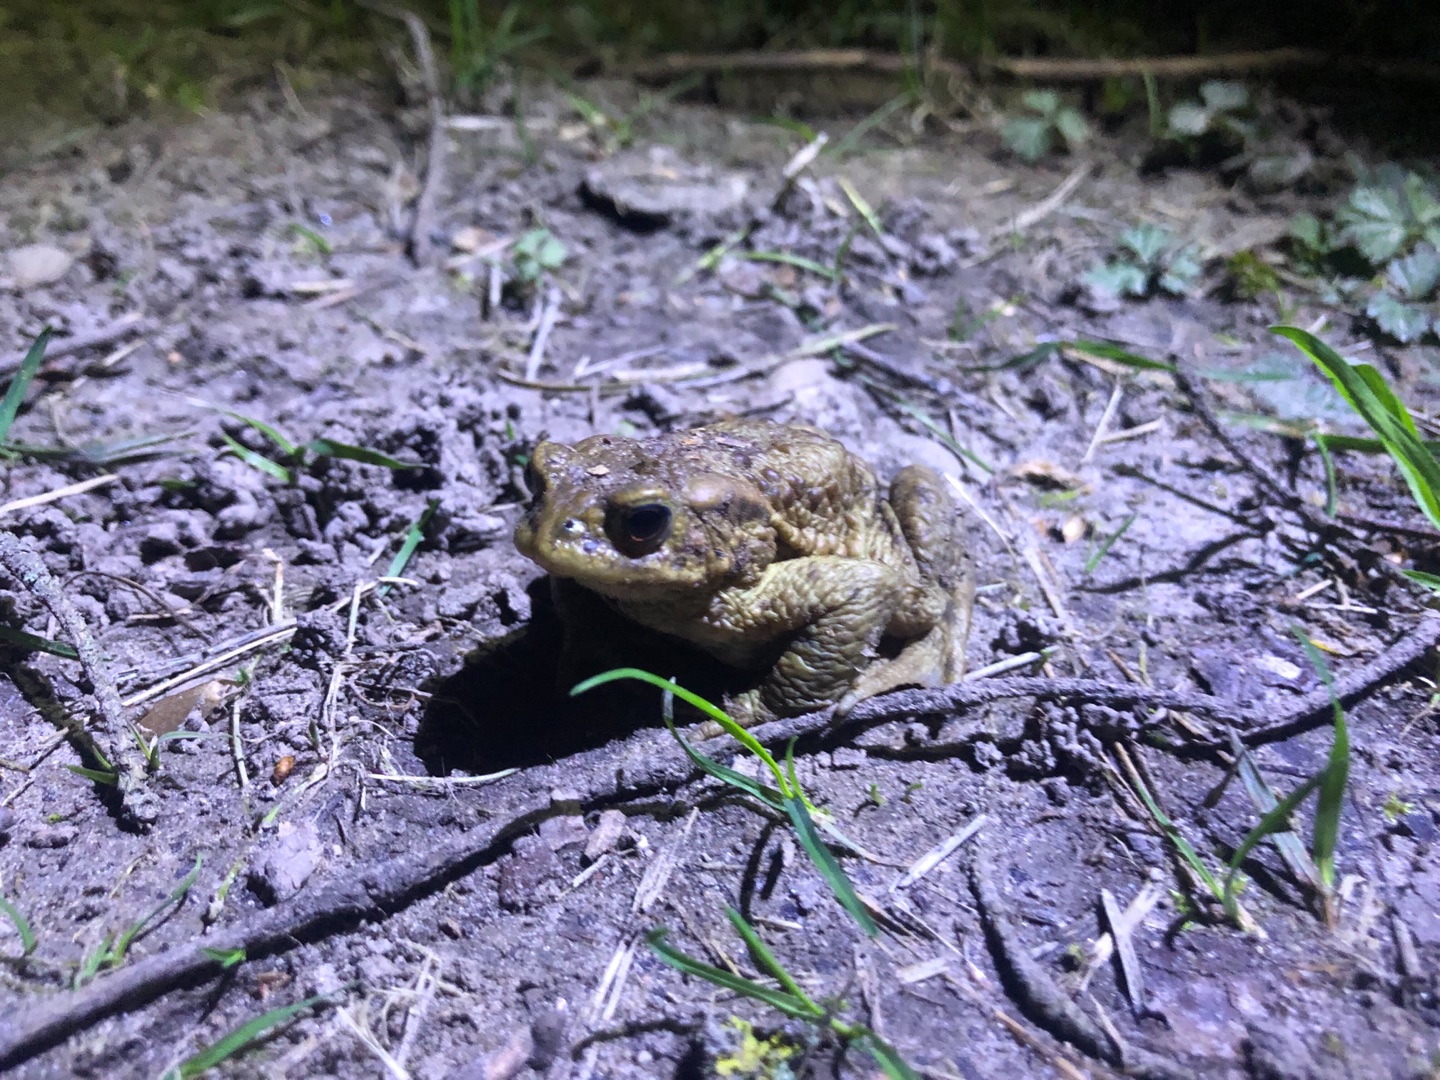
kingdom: Animalia
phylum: Chordata
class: Amphibia
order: Anura
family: Bufonidae
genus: Bufo
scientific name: Bufo bufo
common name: Skrubtudse
